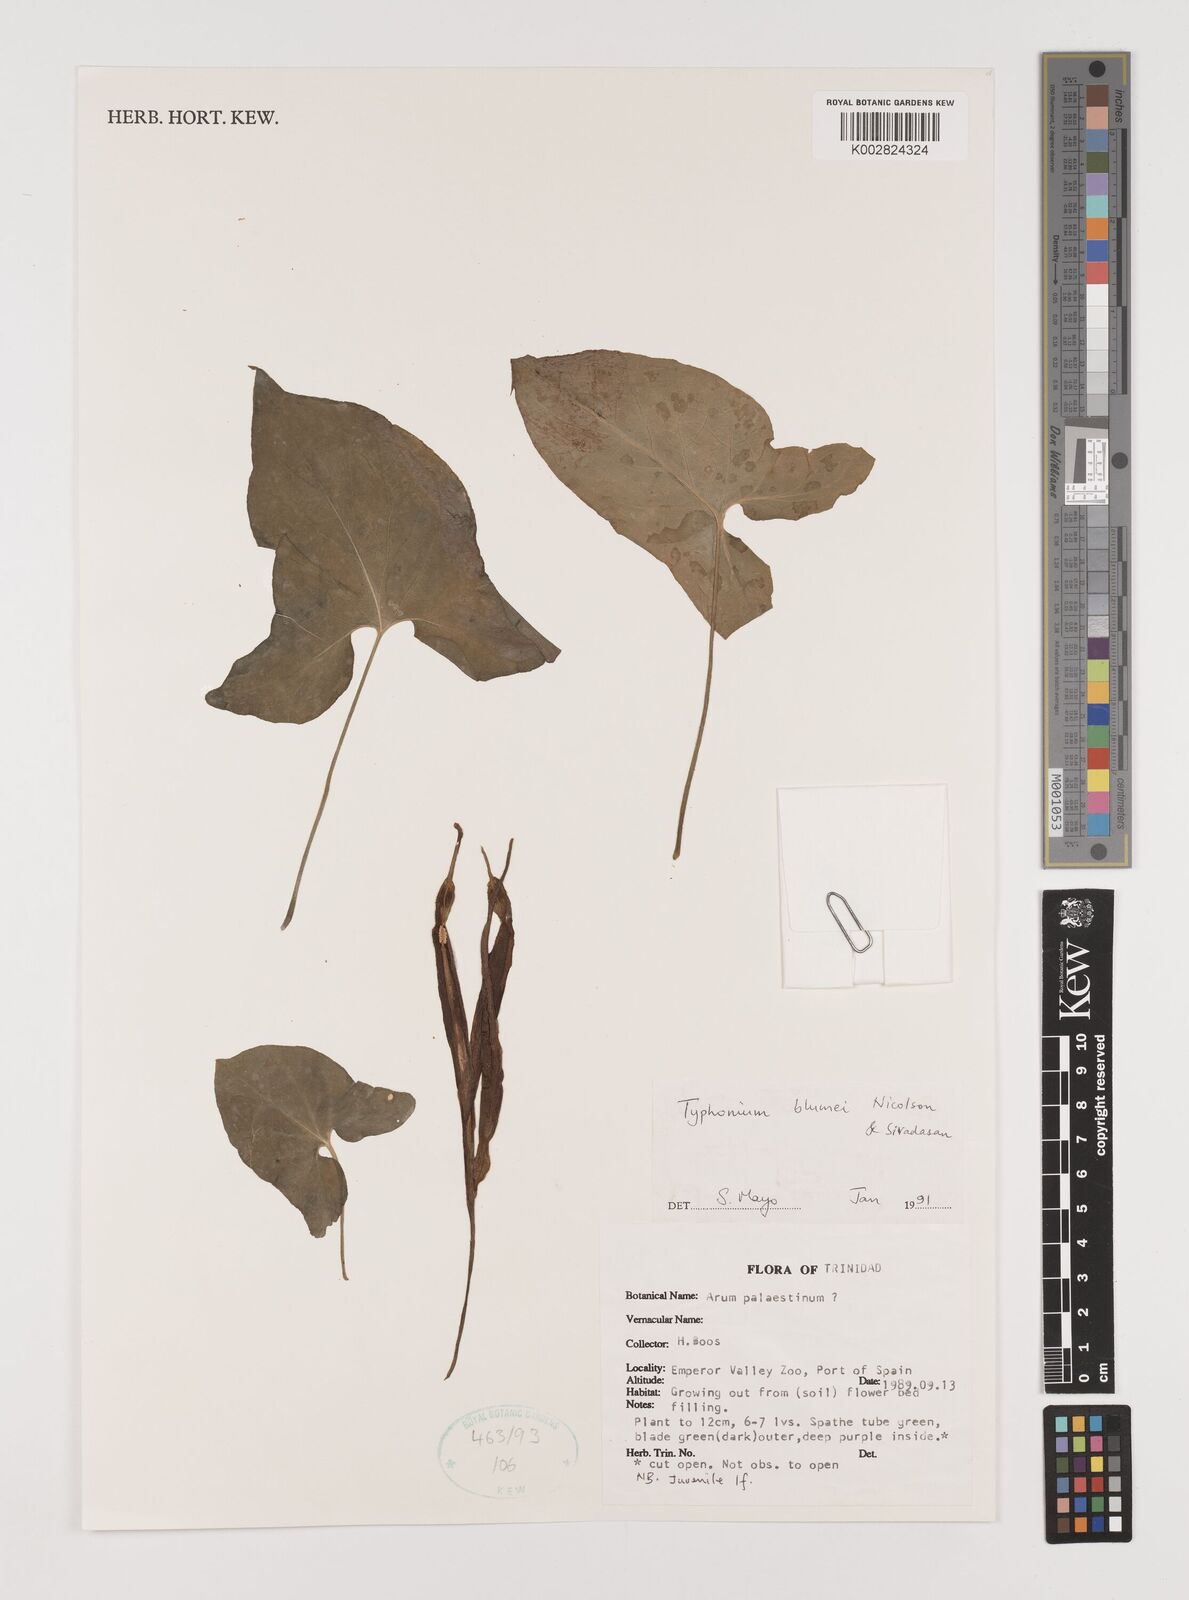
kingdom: Plantae
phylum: Tracheophyta
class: Liliopsida
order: Alismatales
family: Araceae
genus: Typhonium
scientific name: Typhonium blumei
